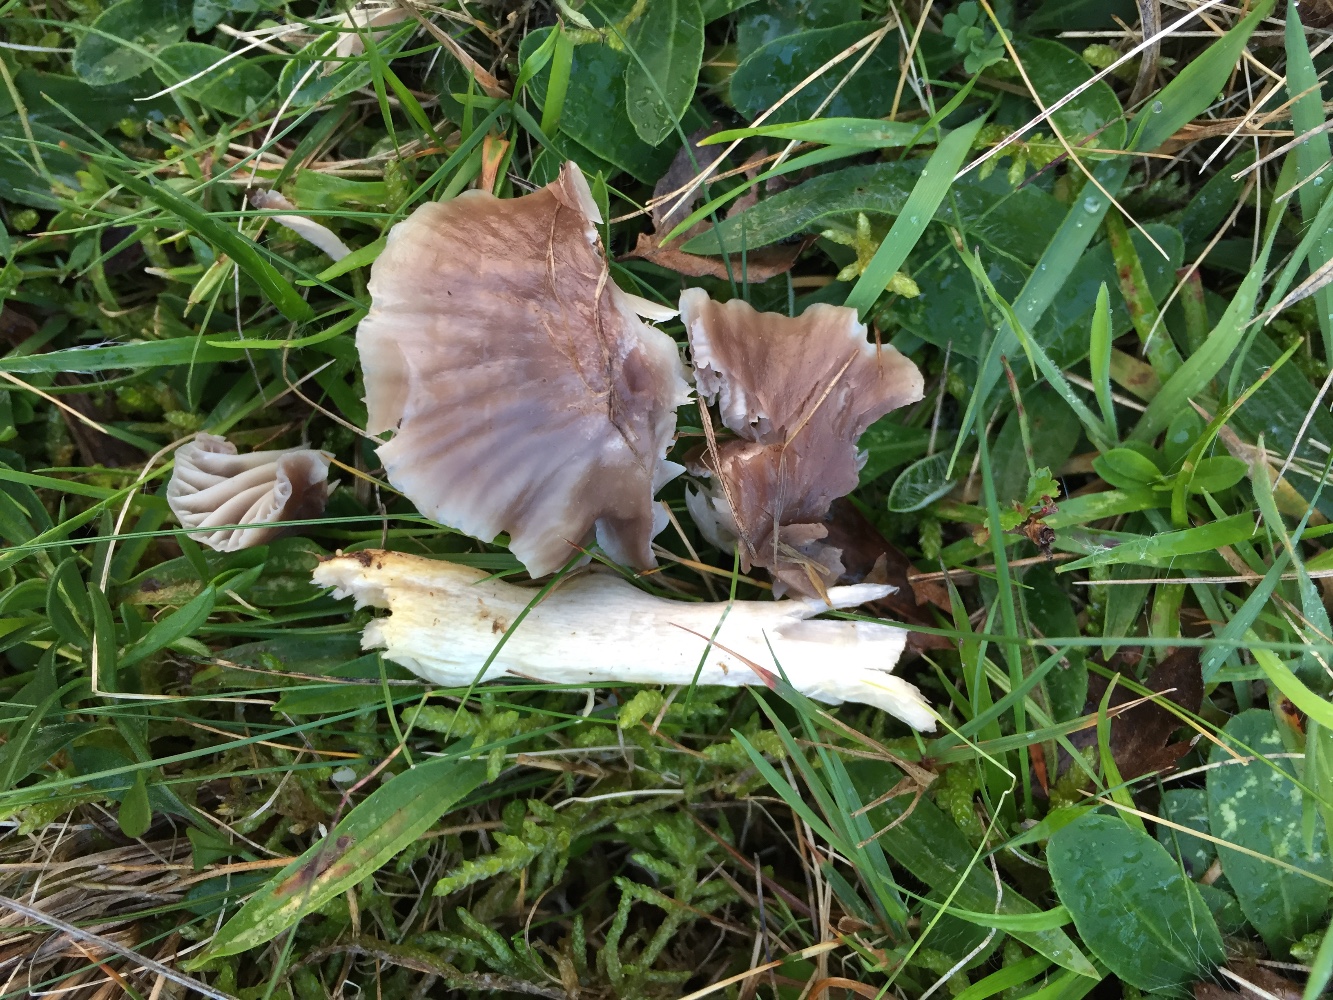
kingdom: Fungi
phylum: Basidiomycota
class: Agaricomycetes
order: Agaricales
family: Hygrophoraceae
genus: Cuphophyllus
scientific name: Cuphophyllus flavipes
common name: gulfodet vokshat
